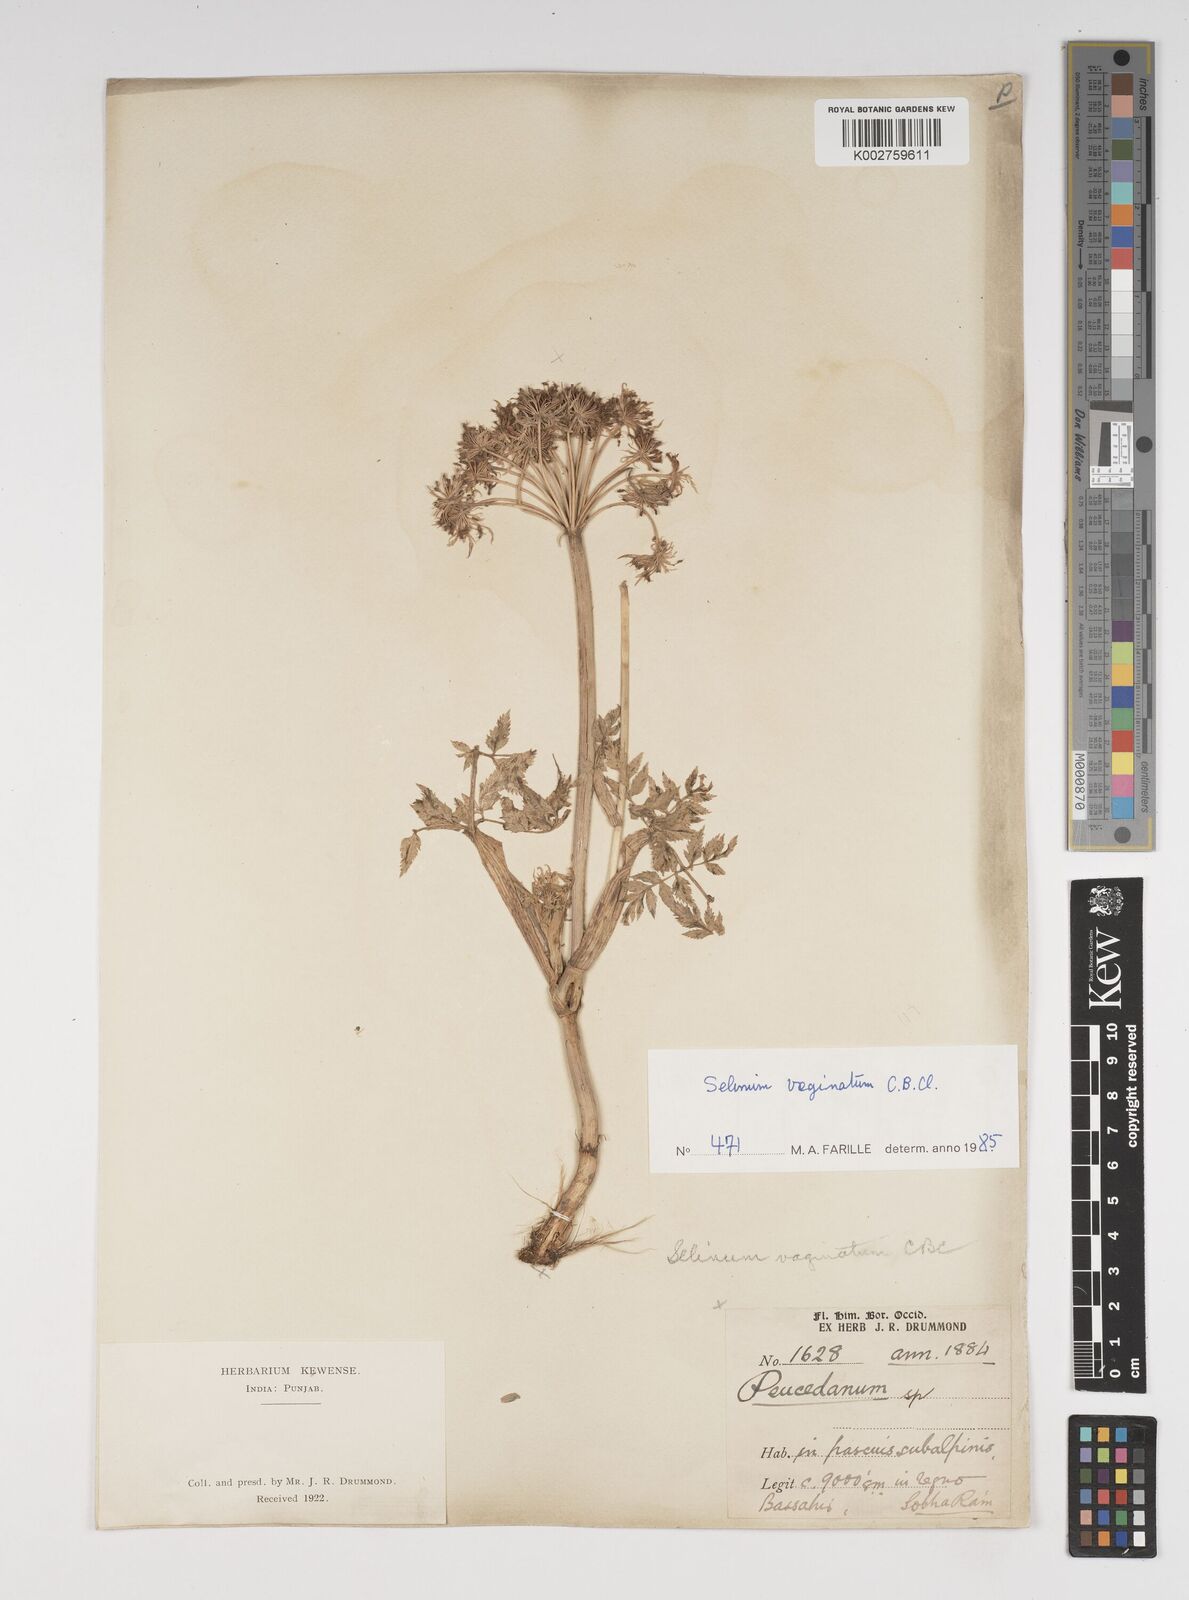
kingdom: Plantae
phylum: Tracheophyta
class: Magnoliopsida
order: Apiales
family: Apiaceae
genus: Selinum
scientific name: Selinum vaginatum
